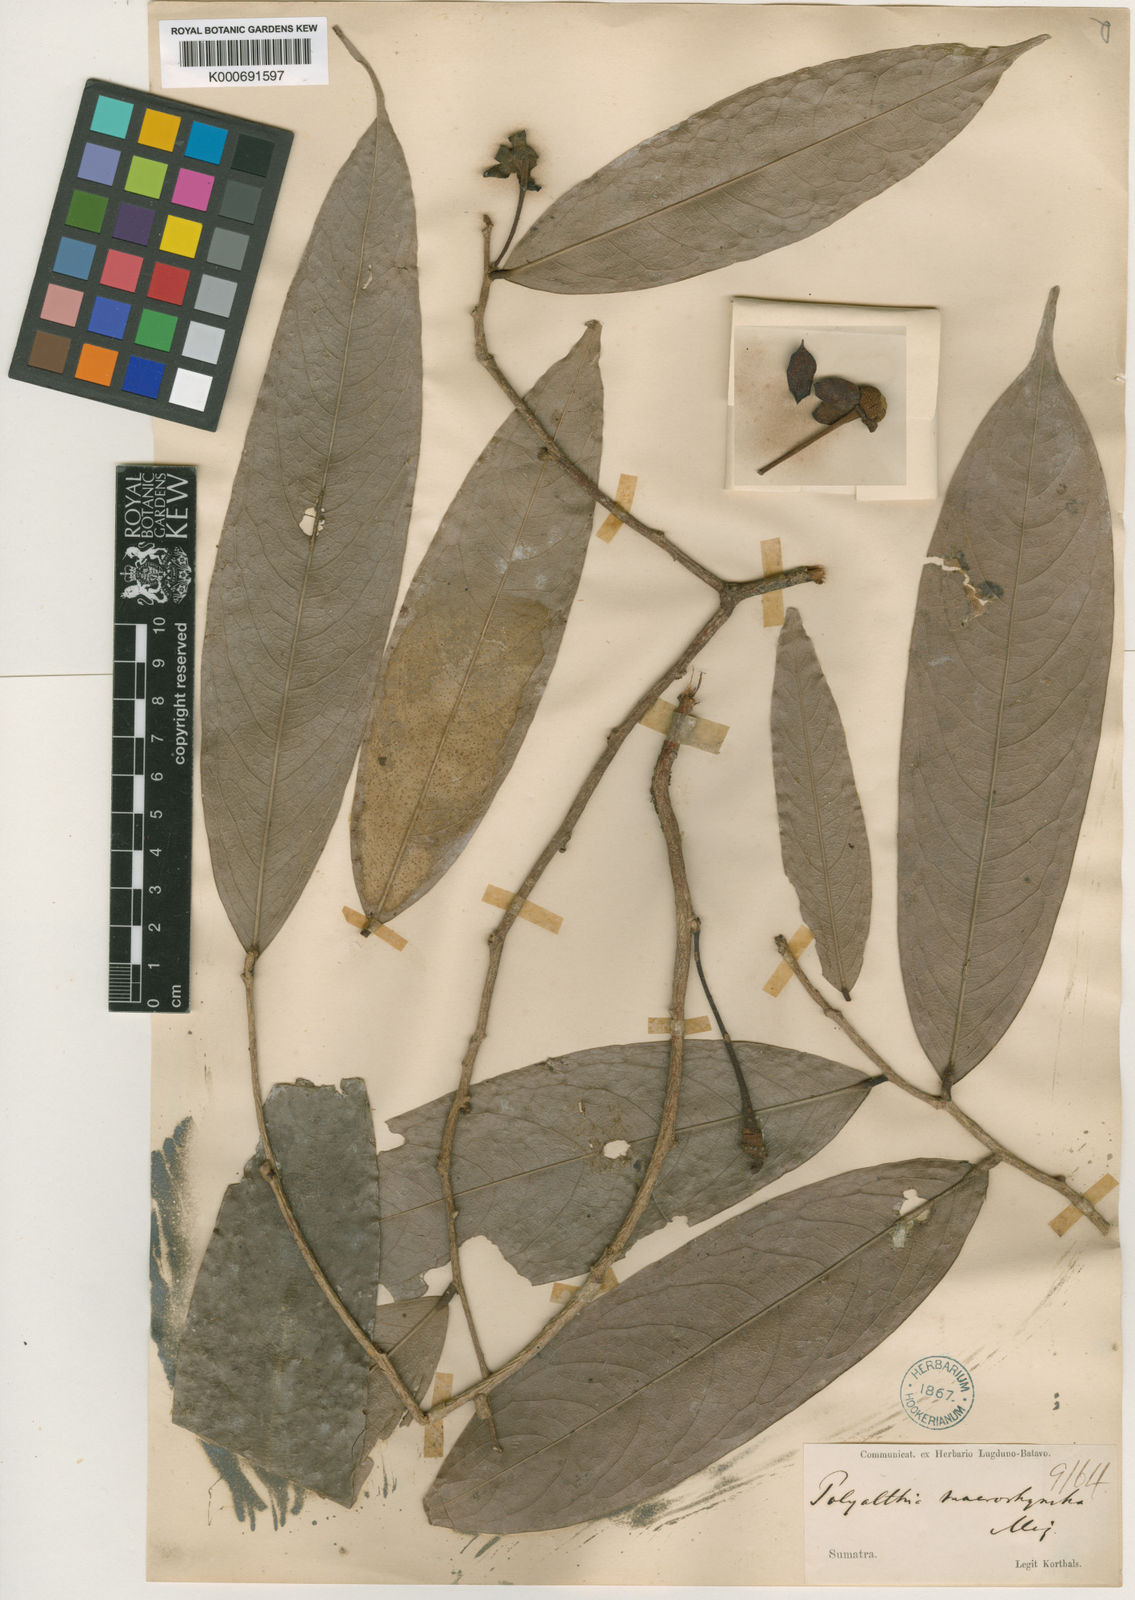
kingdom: Plantae
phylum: Tracheophyta
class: Magnoliopsida
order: Magnoliales
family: Annonaceae
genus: Polyalthia
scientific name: Polyalthia cauliflora
